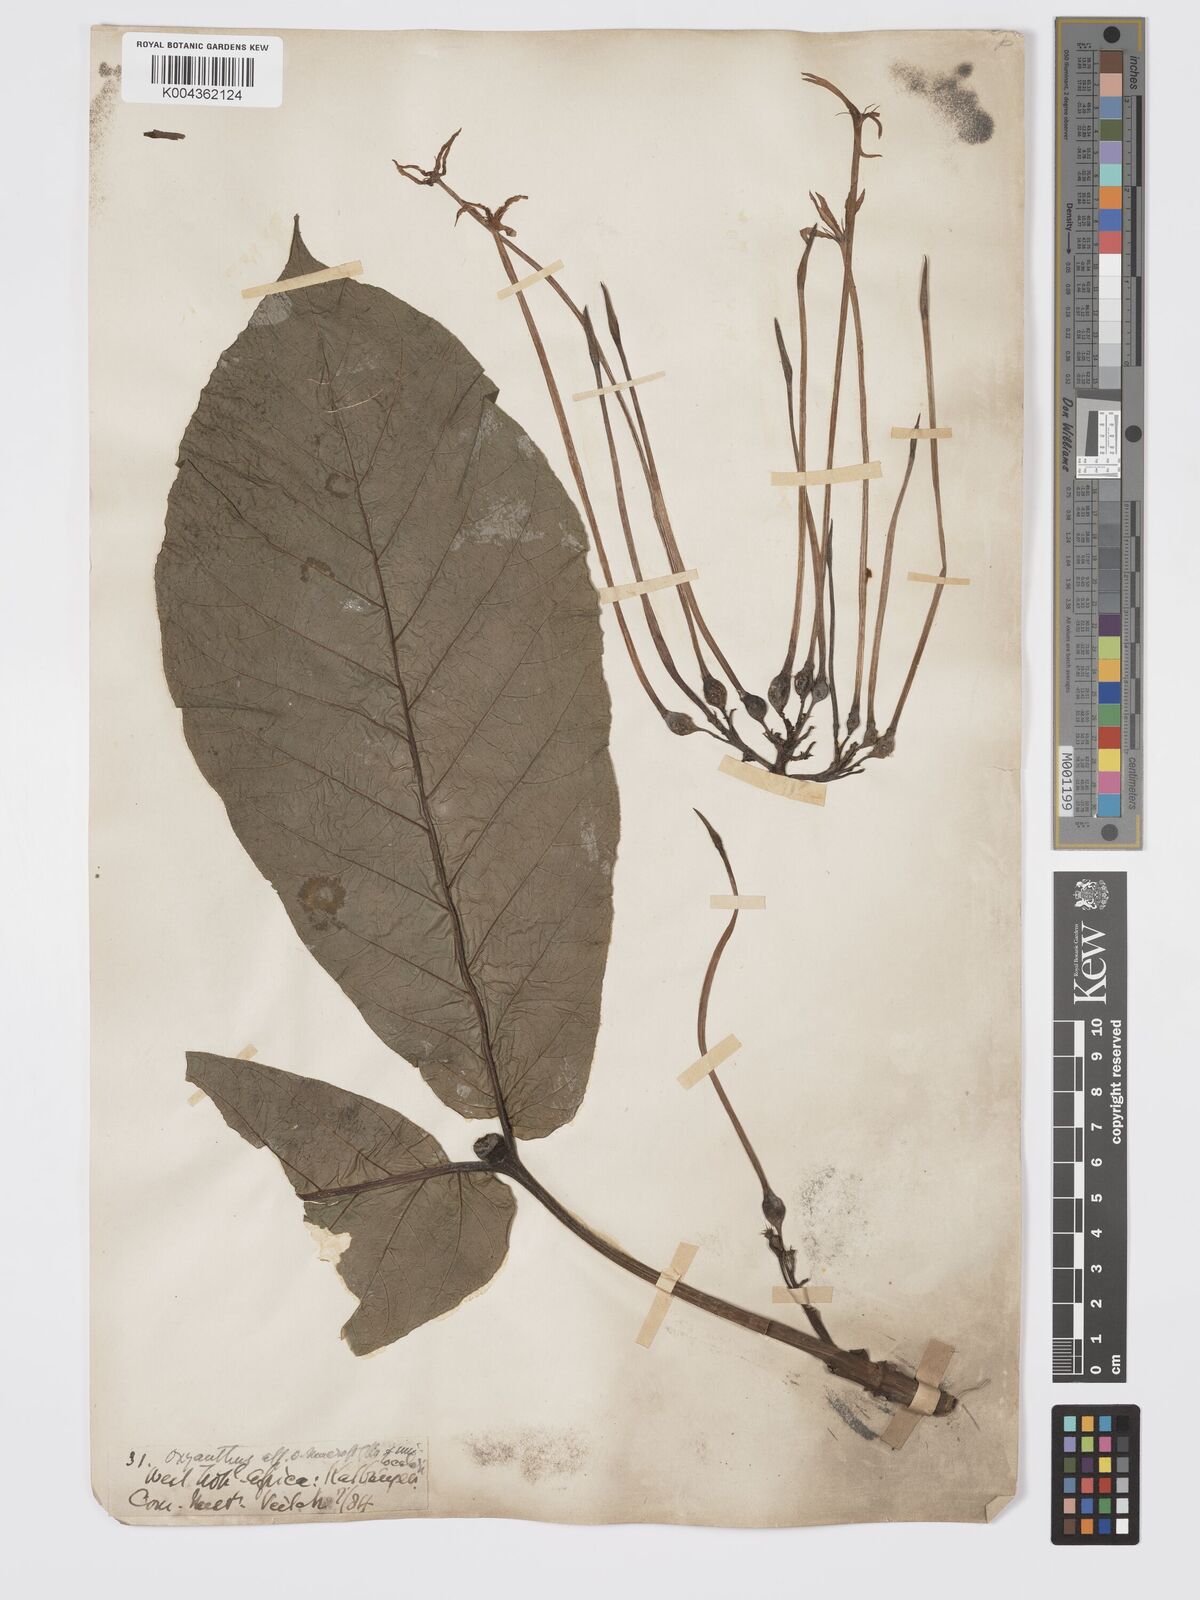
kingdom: Plantae
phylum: Tracheophyta
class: Magnoliopsida
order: Gentianales
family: Rubiaceae
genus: Oxyanthus
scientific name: Oxyanthus unilocularis
